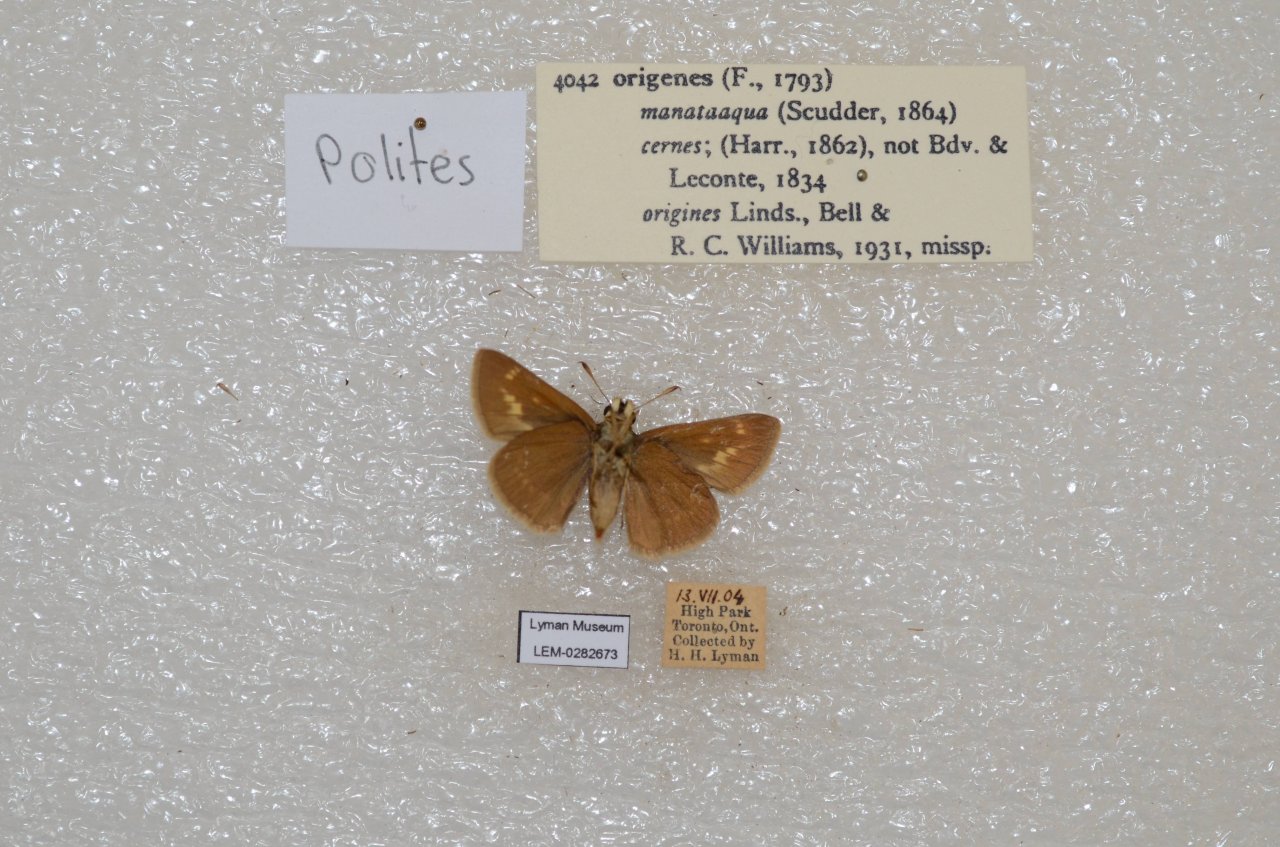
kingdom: Animalia
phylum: Arthropoda
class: Insecta
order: Lepidoptera
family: Hesperiidae
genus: Polites
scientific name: Polites
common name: Crossline Skipper
